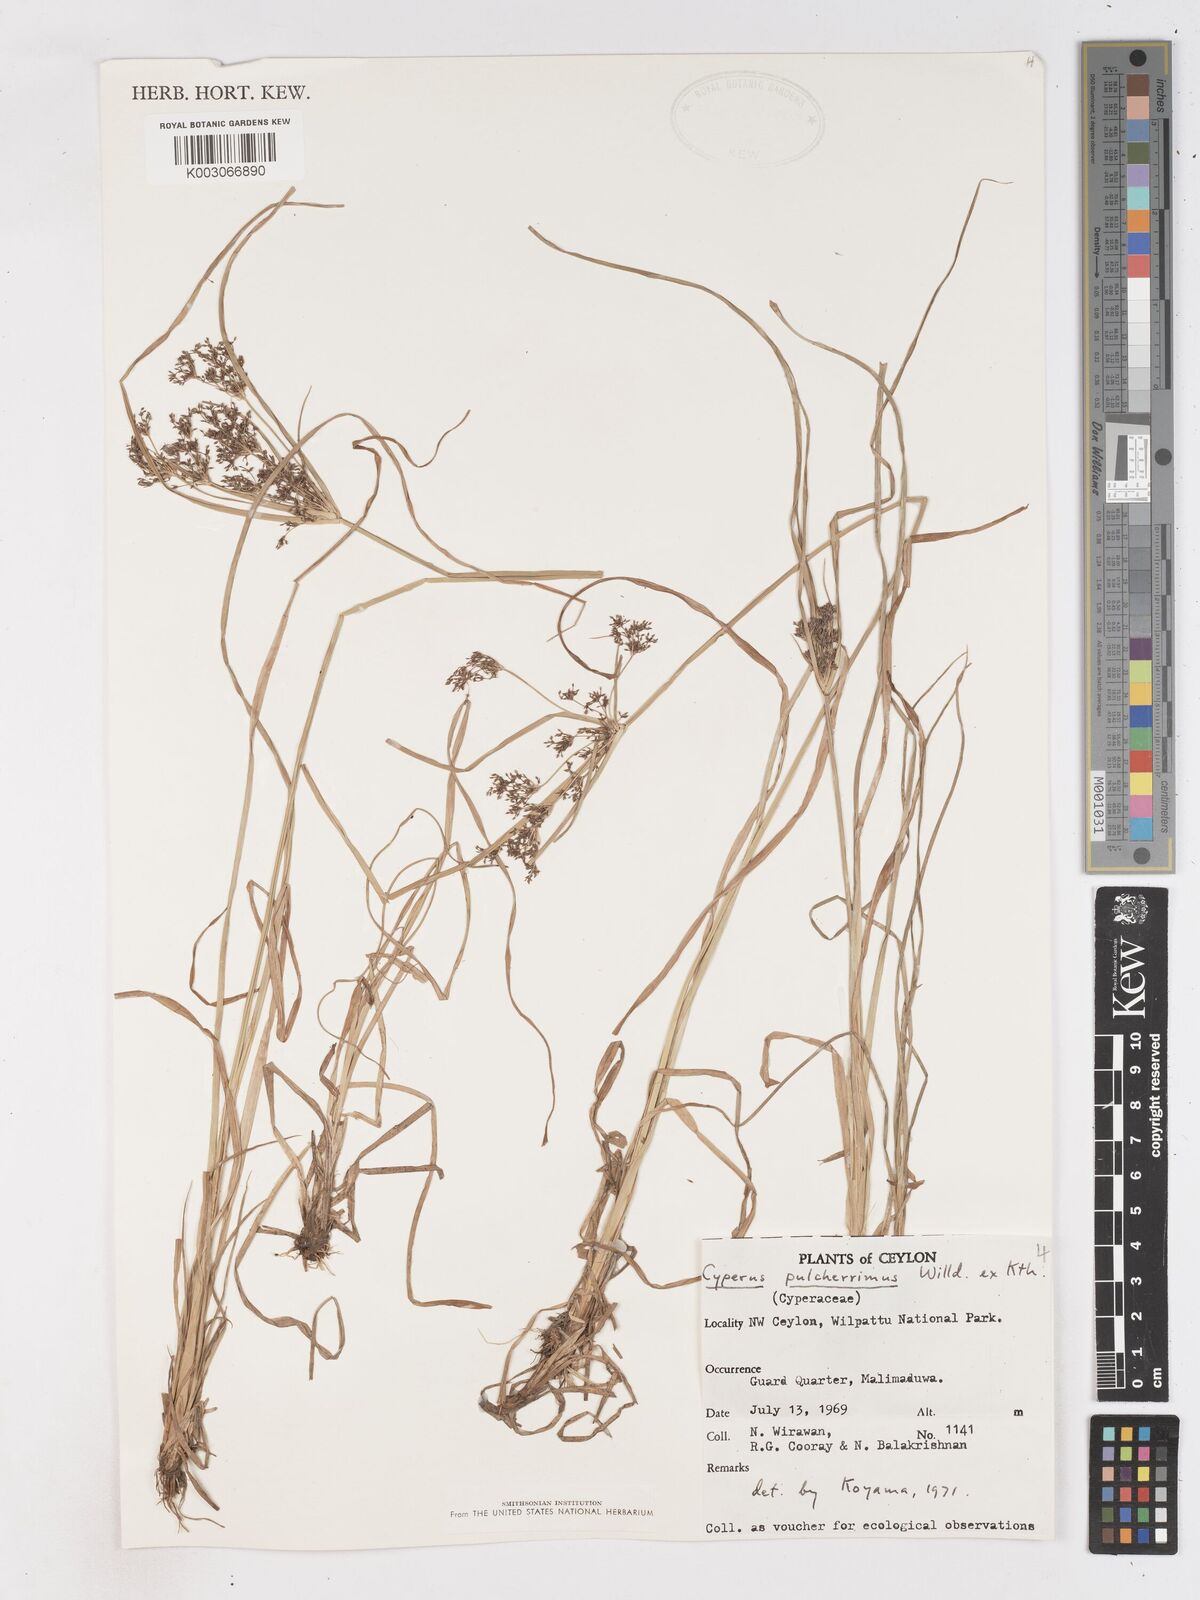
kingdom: Plantae
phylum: Tracheophyta
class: Liliopsida
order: Poales
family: Cyperaceae
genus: Cyperus
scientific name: Cyperus pulcherrimus
